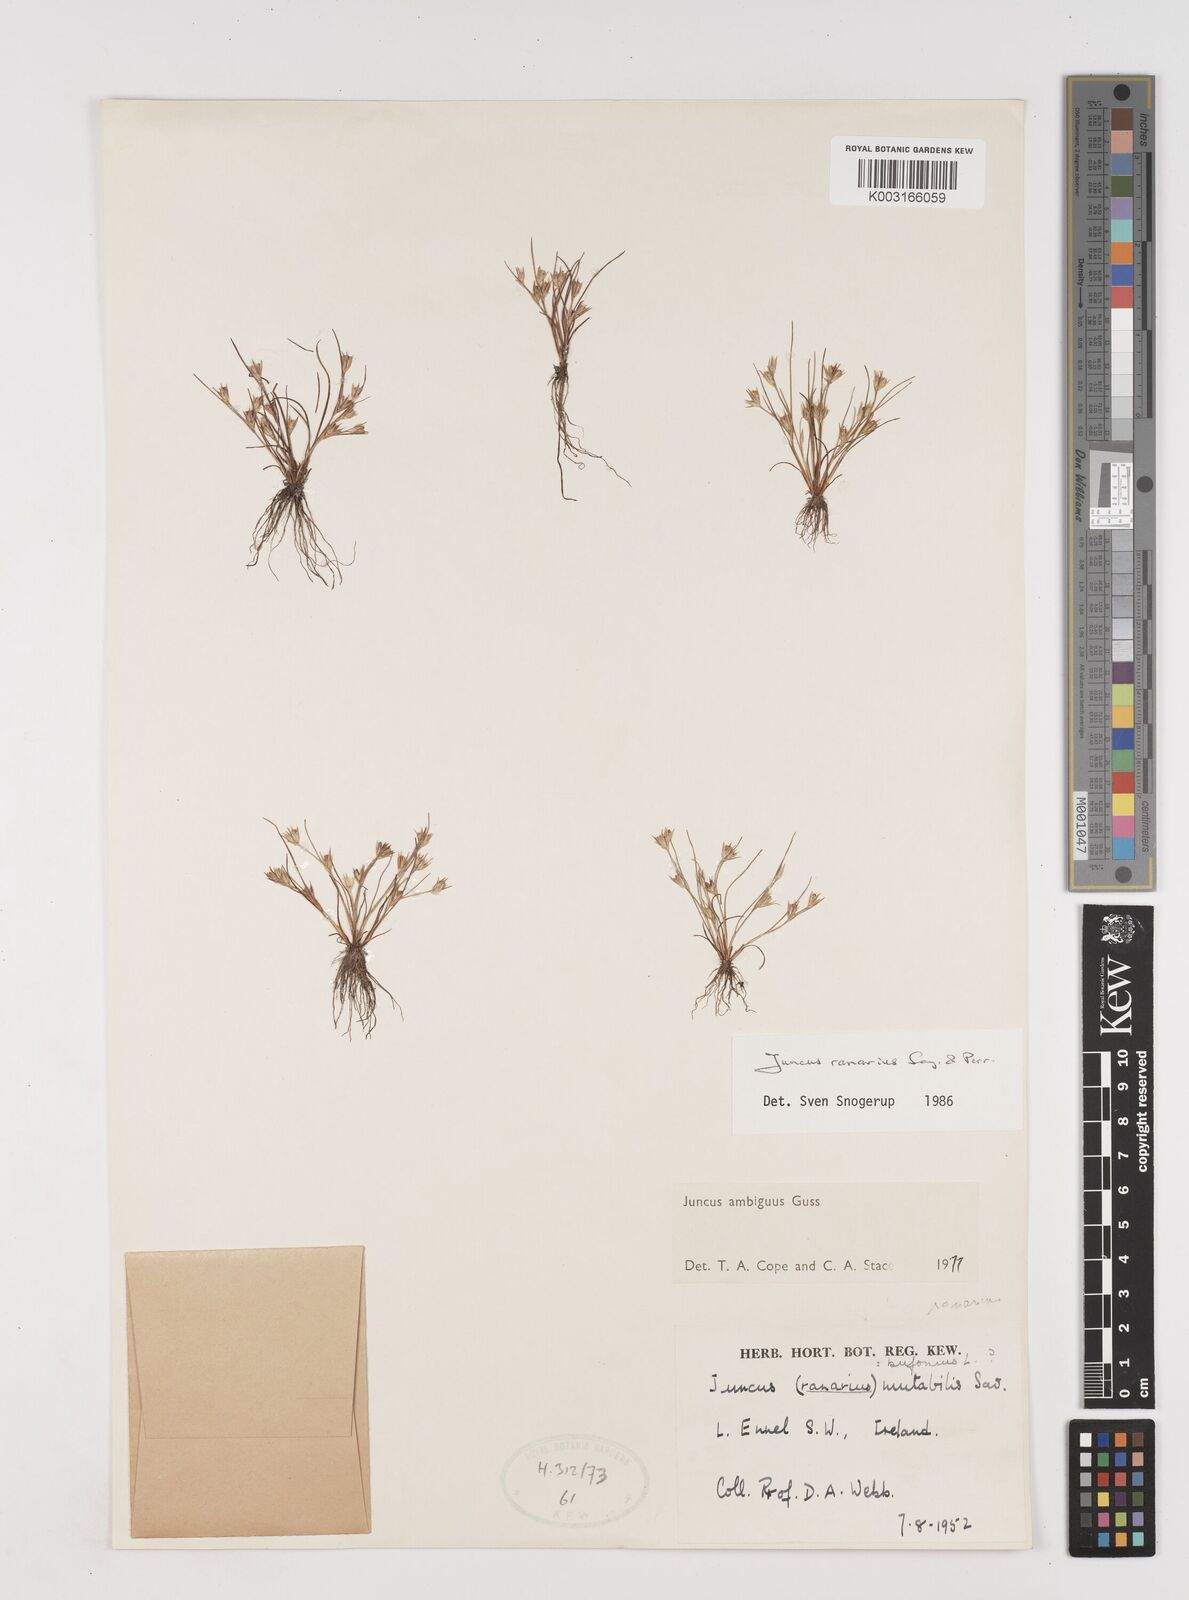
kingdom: Plantae
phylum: Tracheophyta
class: Liliopsida
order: Poales
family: Juncaceae
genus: Juncus
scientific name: Juncus hybridus
